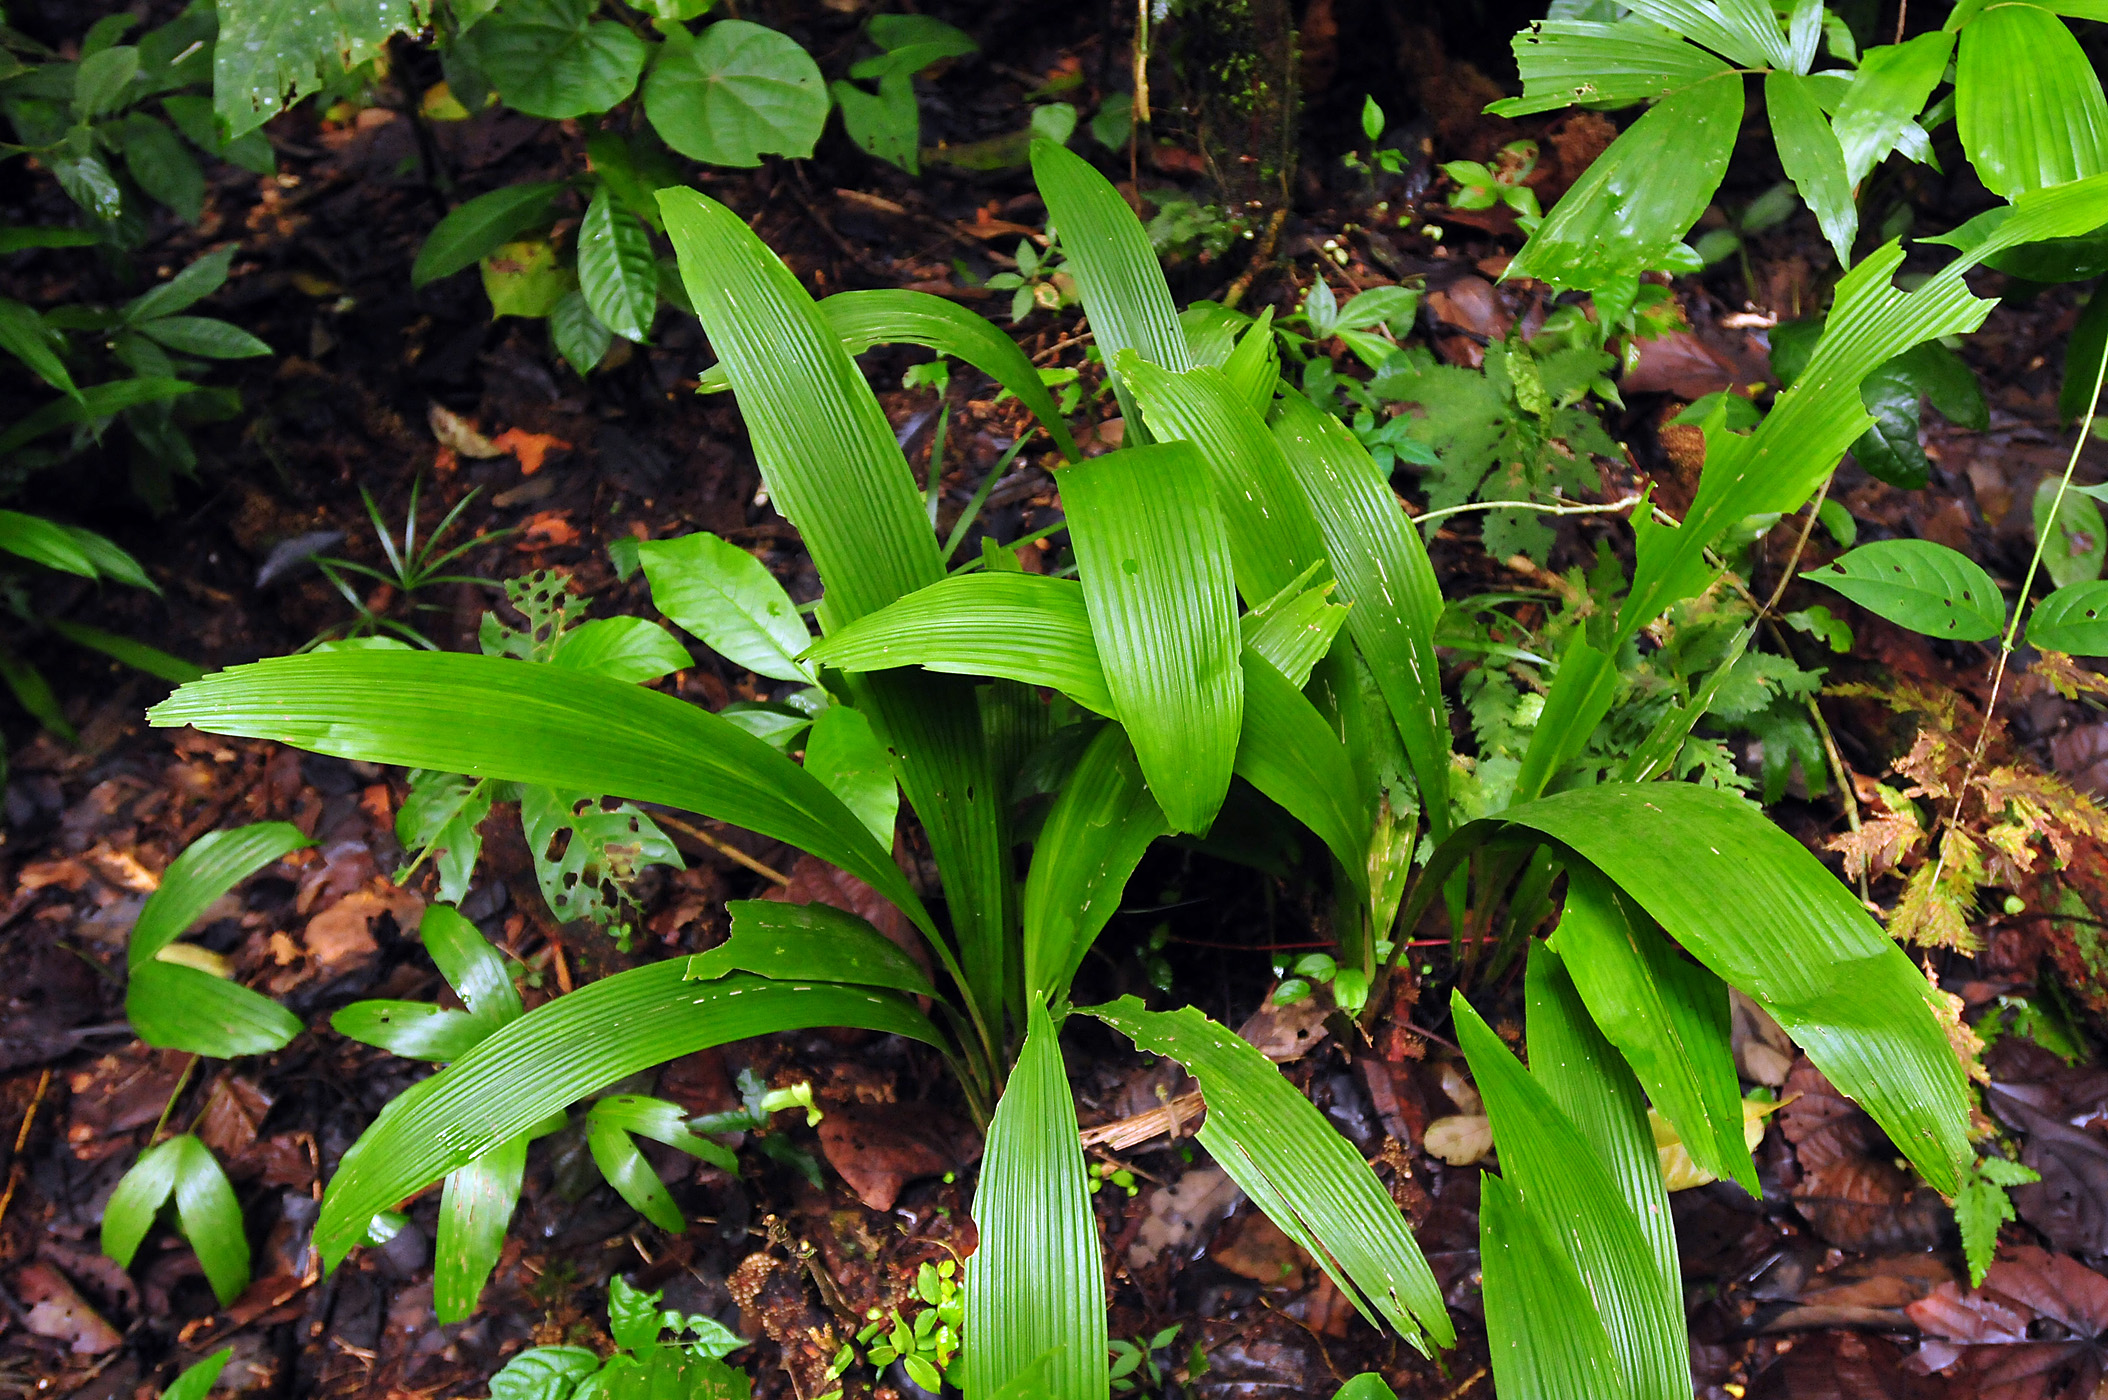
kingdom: Plantae
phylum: Tracheophyta
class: Liliopsida
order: Arecales
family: Arecaceae
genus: Attalea
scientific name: Attalea phalerata
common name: Urucuri palm
